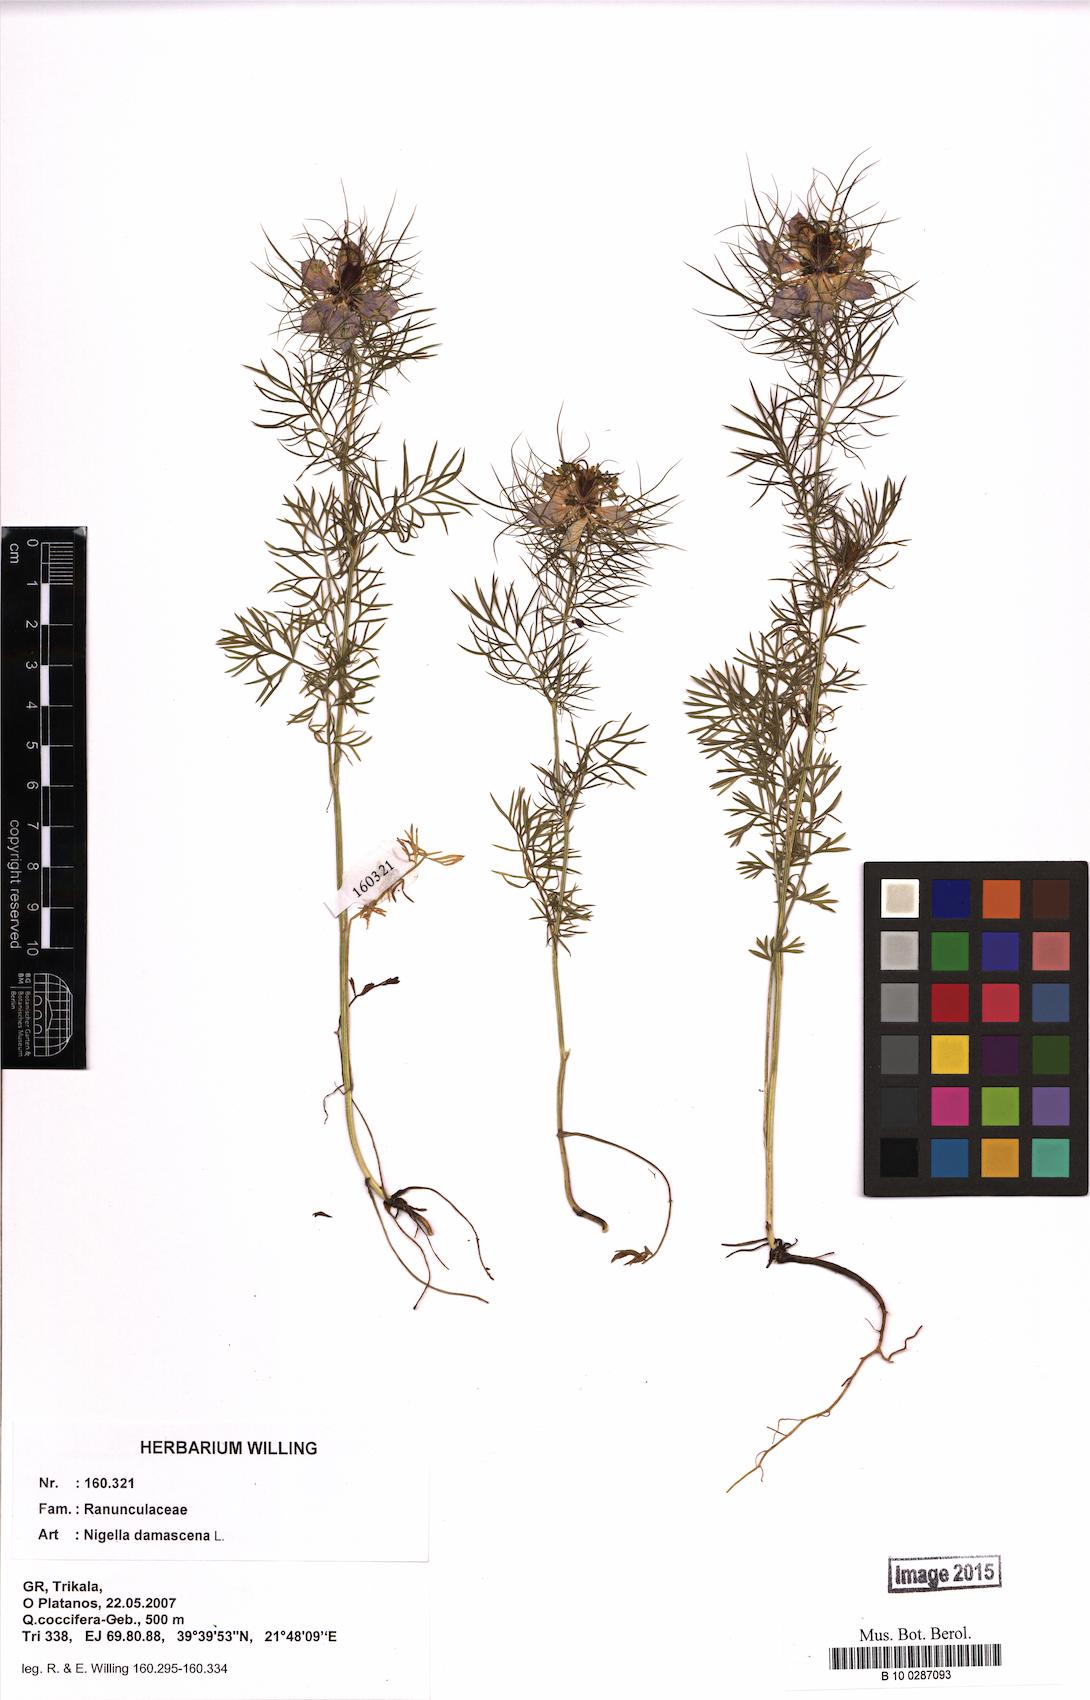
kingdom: Plantae
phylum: Tracheophyta
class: Magnoliopsida
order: Ranunculales
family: Ranunculaceae
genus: Nigella
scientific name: Nigella damascena
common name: Love-in-a-mist
